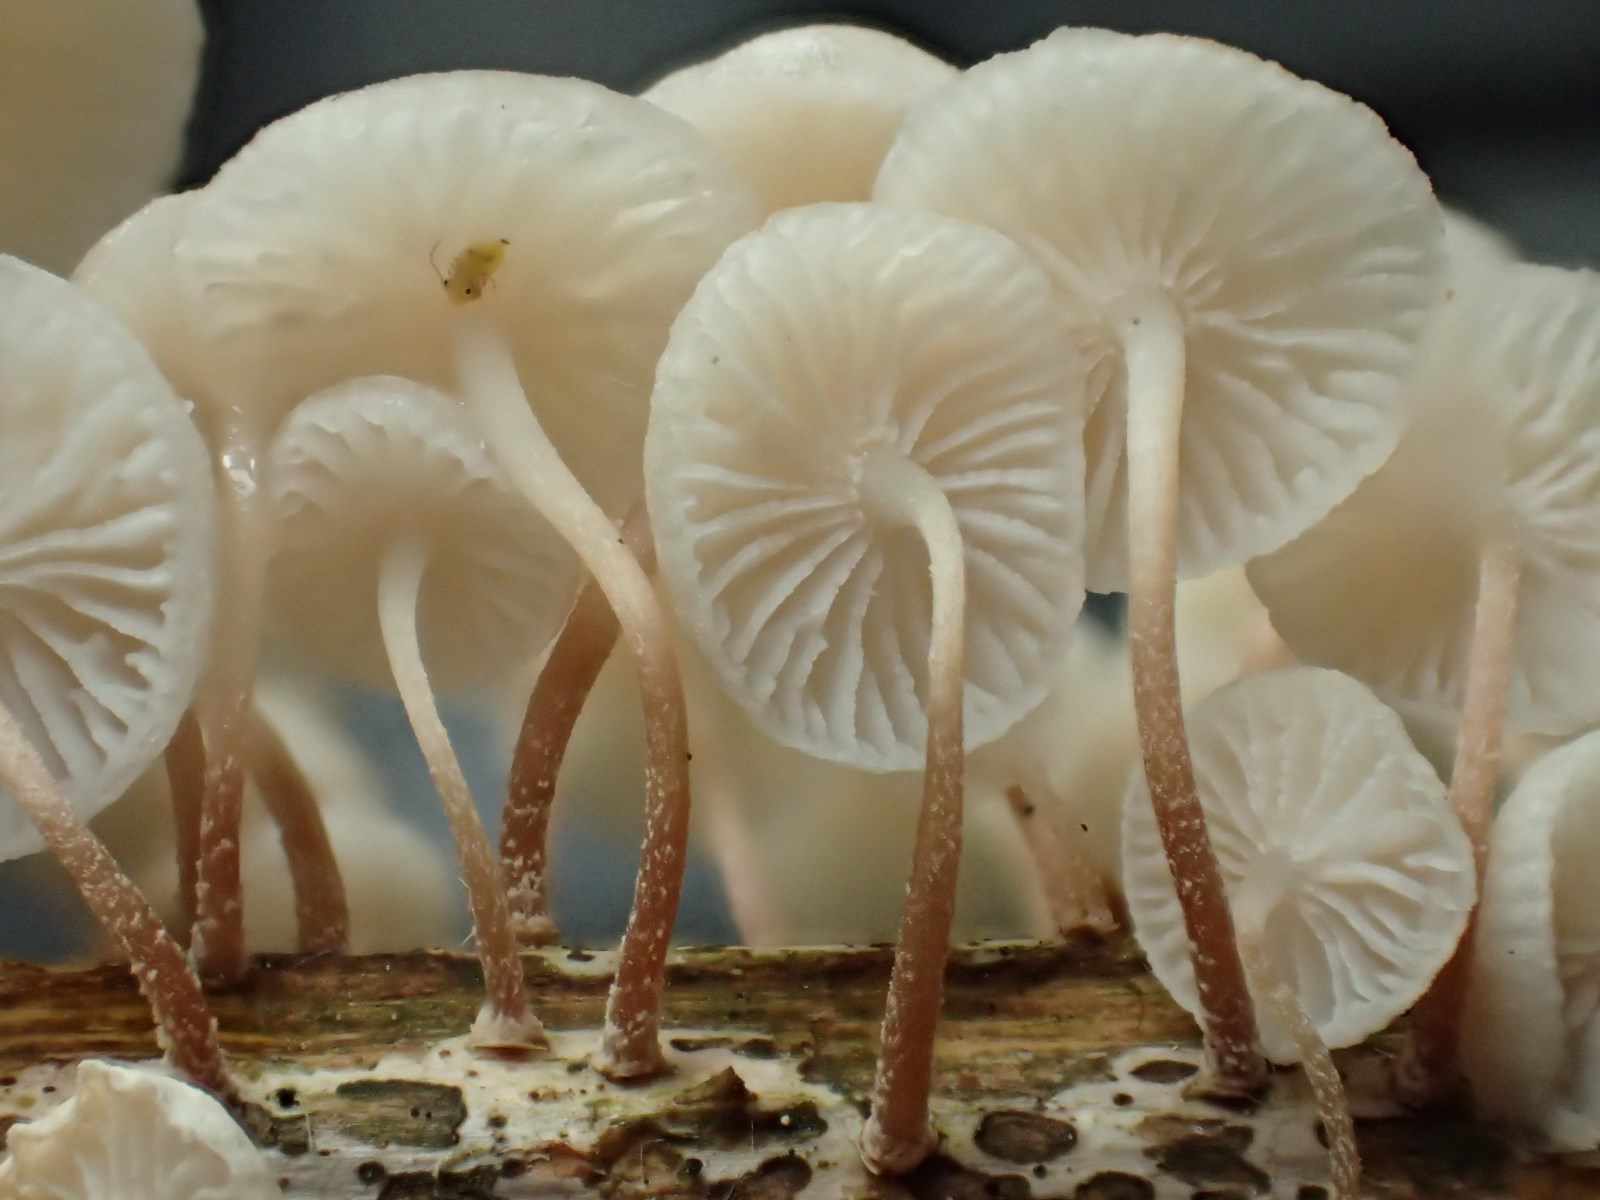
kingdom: Fungi
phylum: Basidiomycota
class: Agaricomycetes
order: Agaricales
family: Omphalotaceae
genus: Collybiopsis
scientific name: Collybiopsis ramealis
